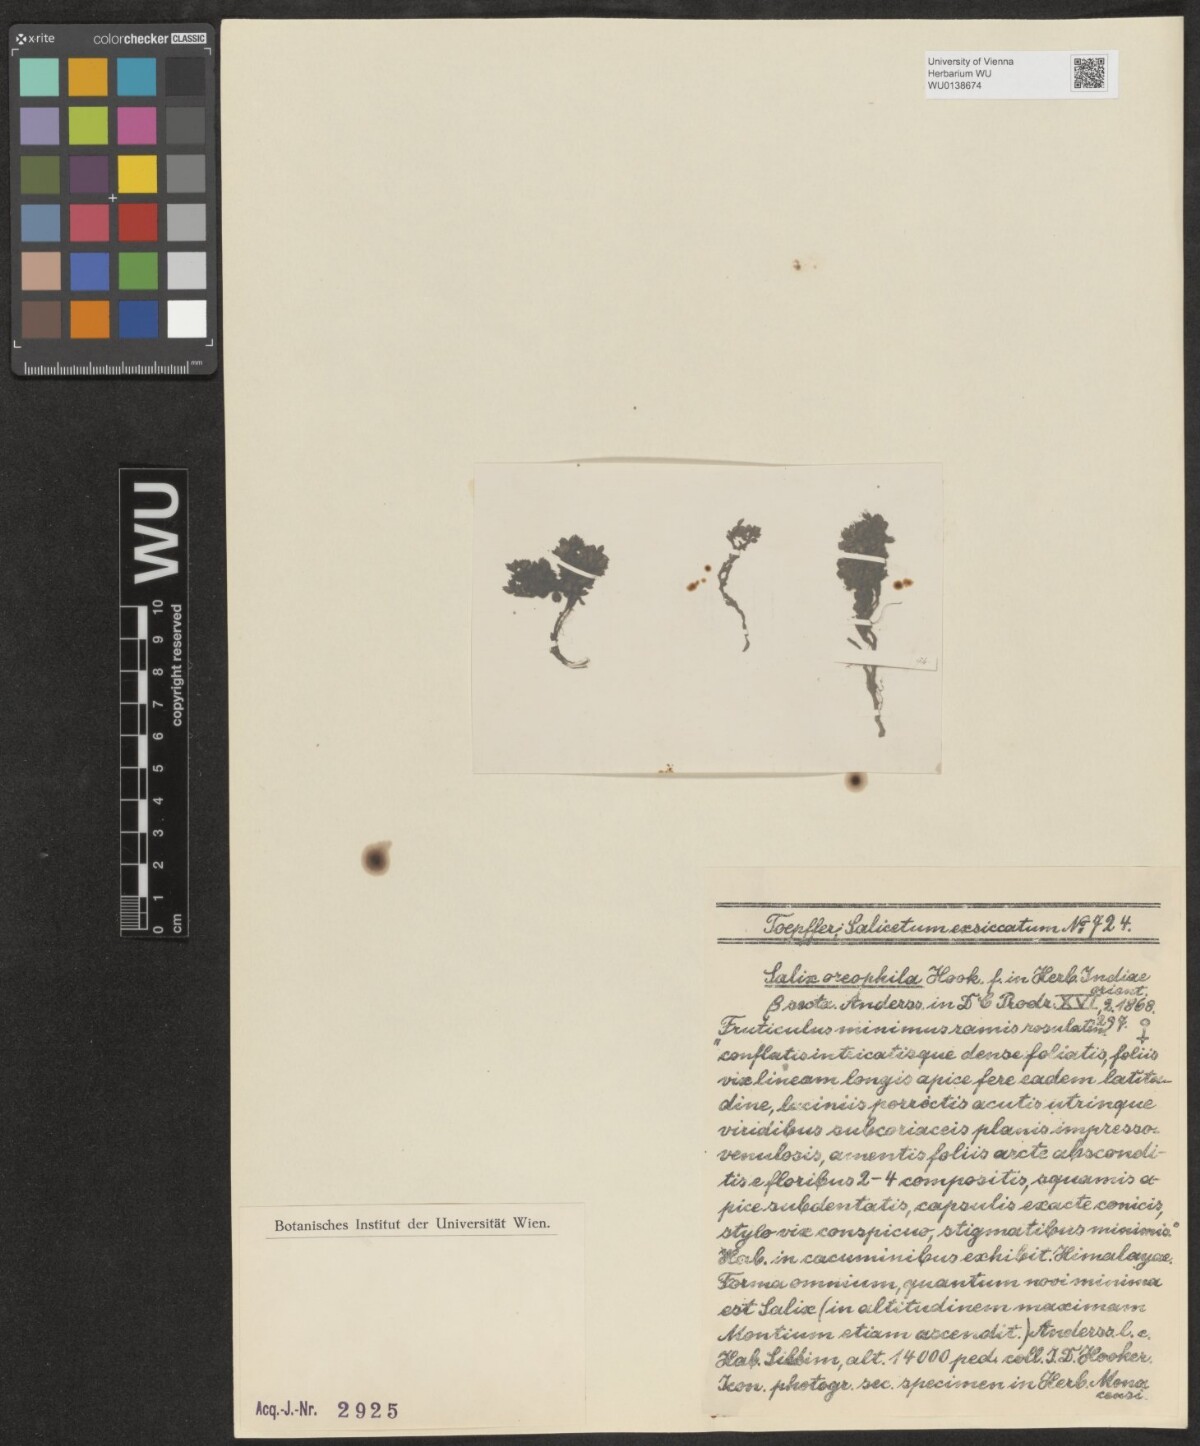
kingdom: Plantae
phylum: Tracheophyta
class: Magnoliopsida
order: Malpighiales
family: Salicaceae
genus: Salix
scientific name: Salix oreophila
